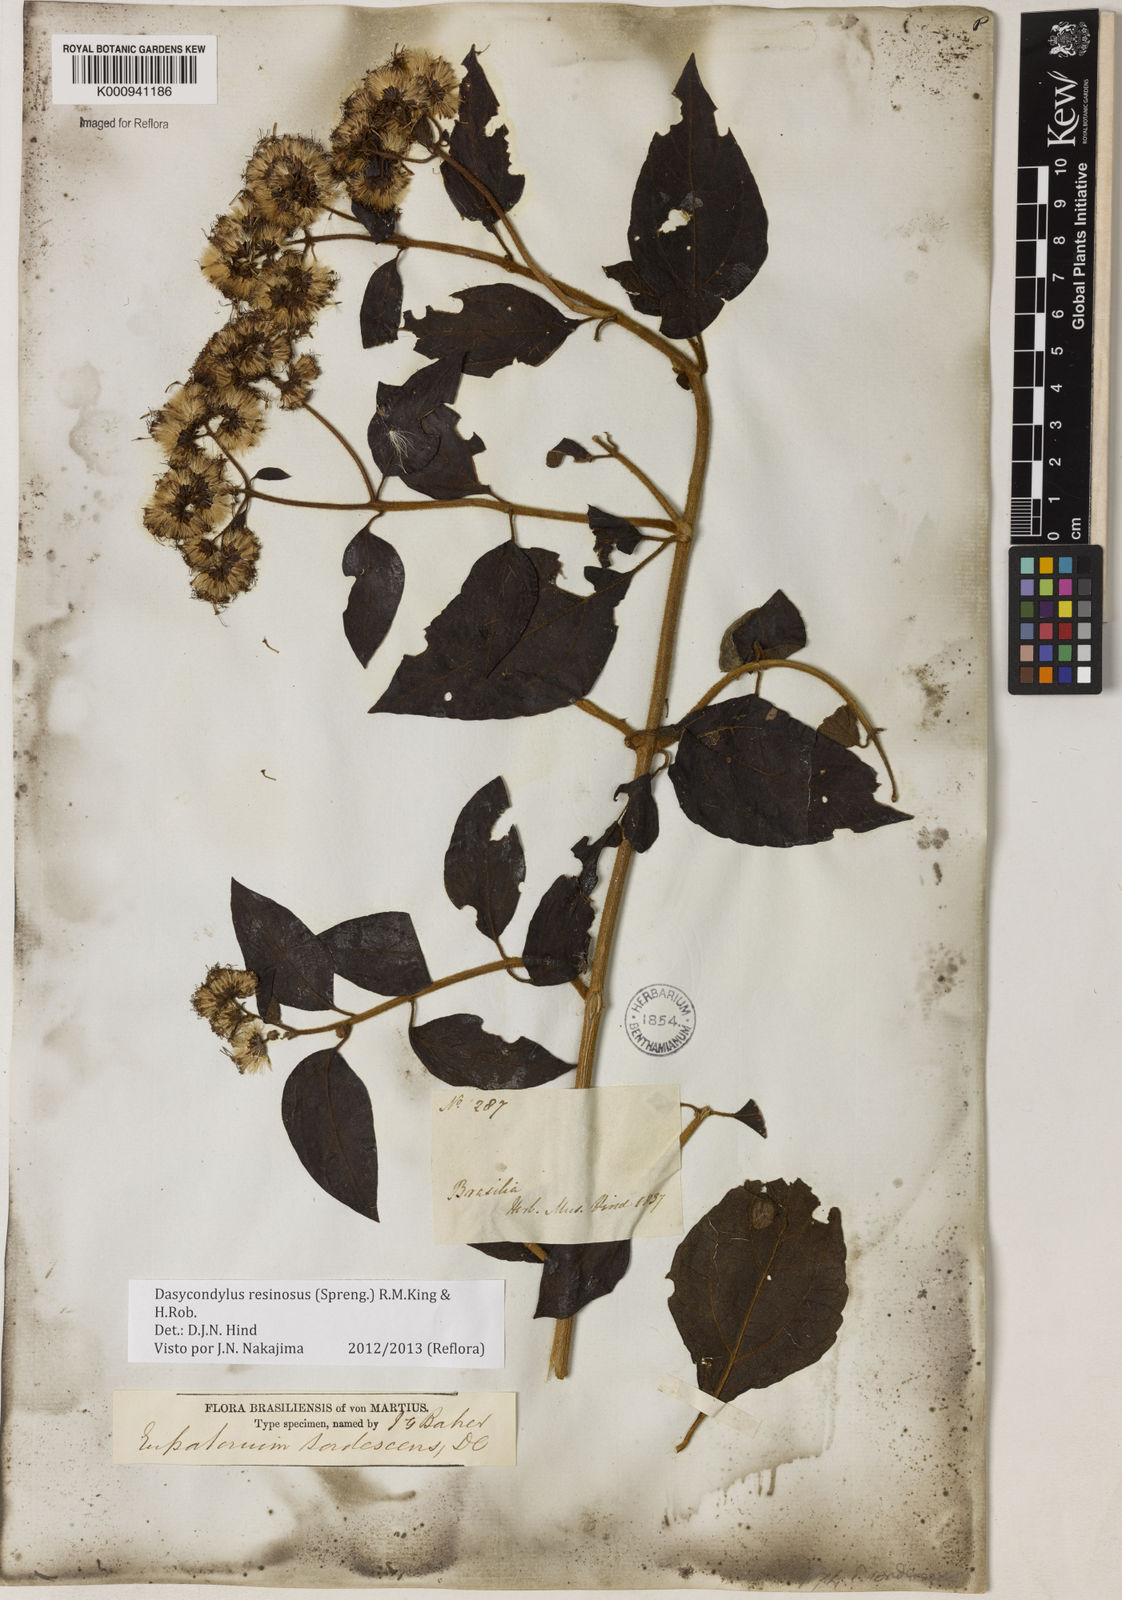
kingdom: Plantae
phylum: Tracheophyta
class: Magnoliopsida
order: Asterales
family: Asteraceae
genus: Dasycondylus
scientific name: Dasycondylus resinosus
